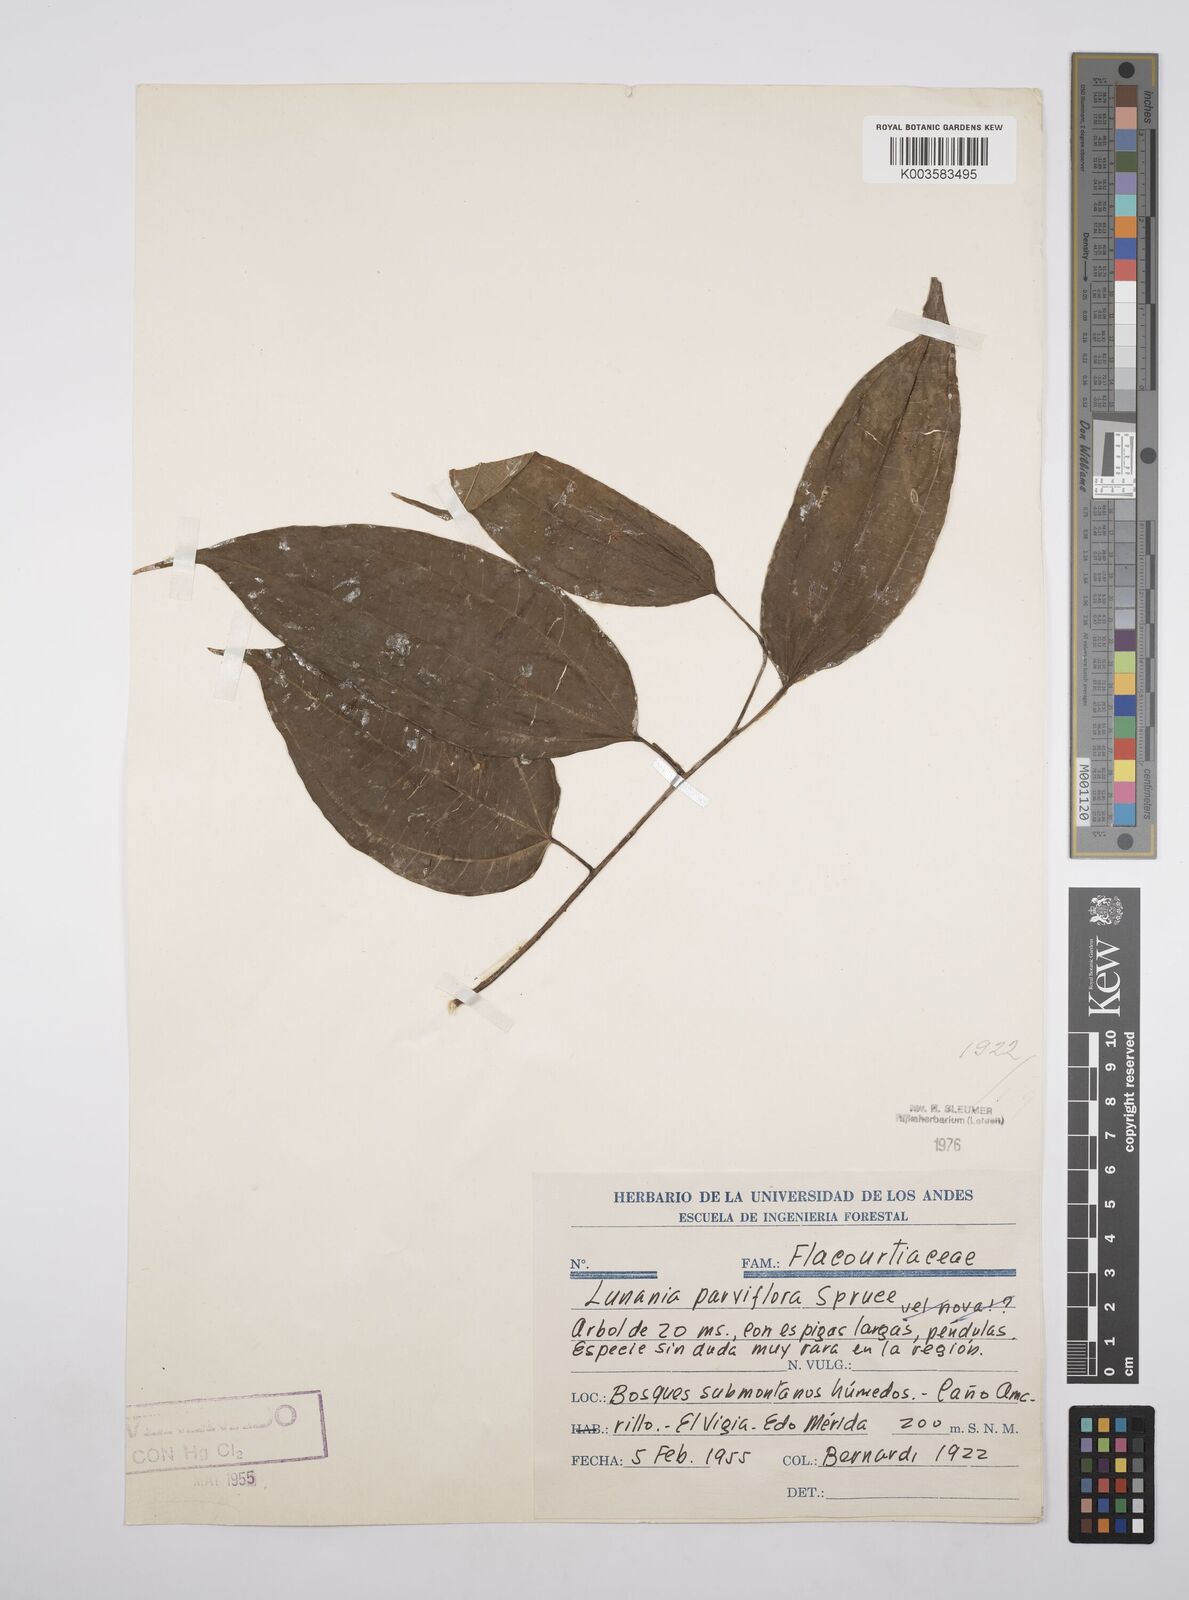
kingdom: Plantae
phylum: Tracheophyta
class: Magnoliopsida
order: Malpighiales
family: Salicaceae
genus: Lunania
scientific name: Lunania parviflora
